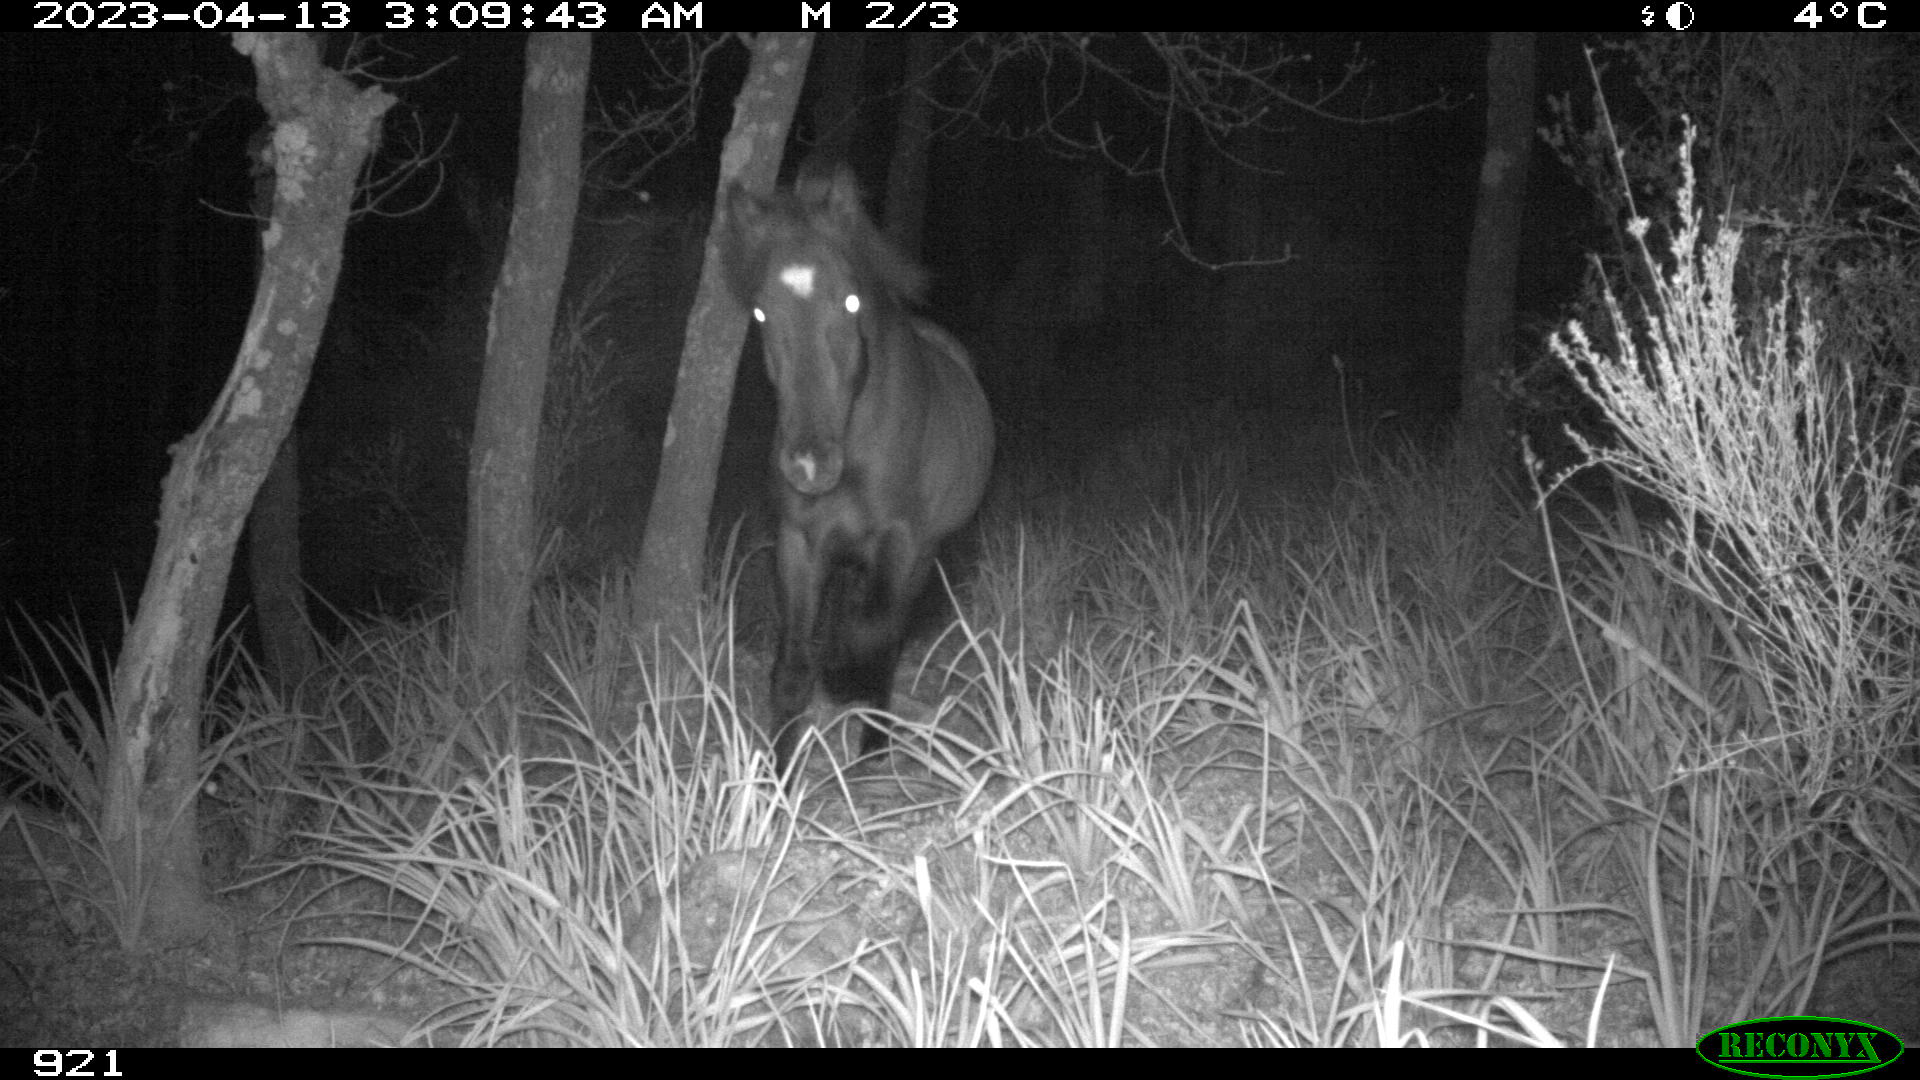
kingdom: Animalia
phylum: Chordata
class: Mammalia
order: Perissodactyla
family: Equidae
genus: Equus
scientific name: Equus caballus
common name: Horse
